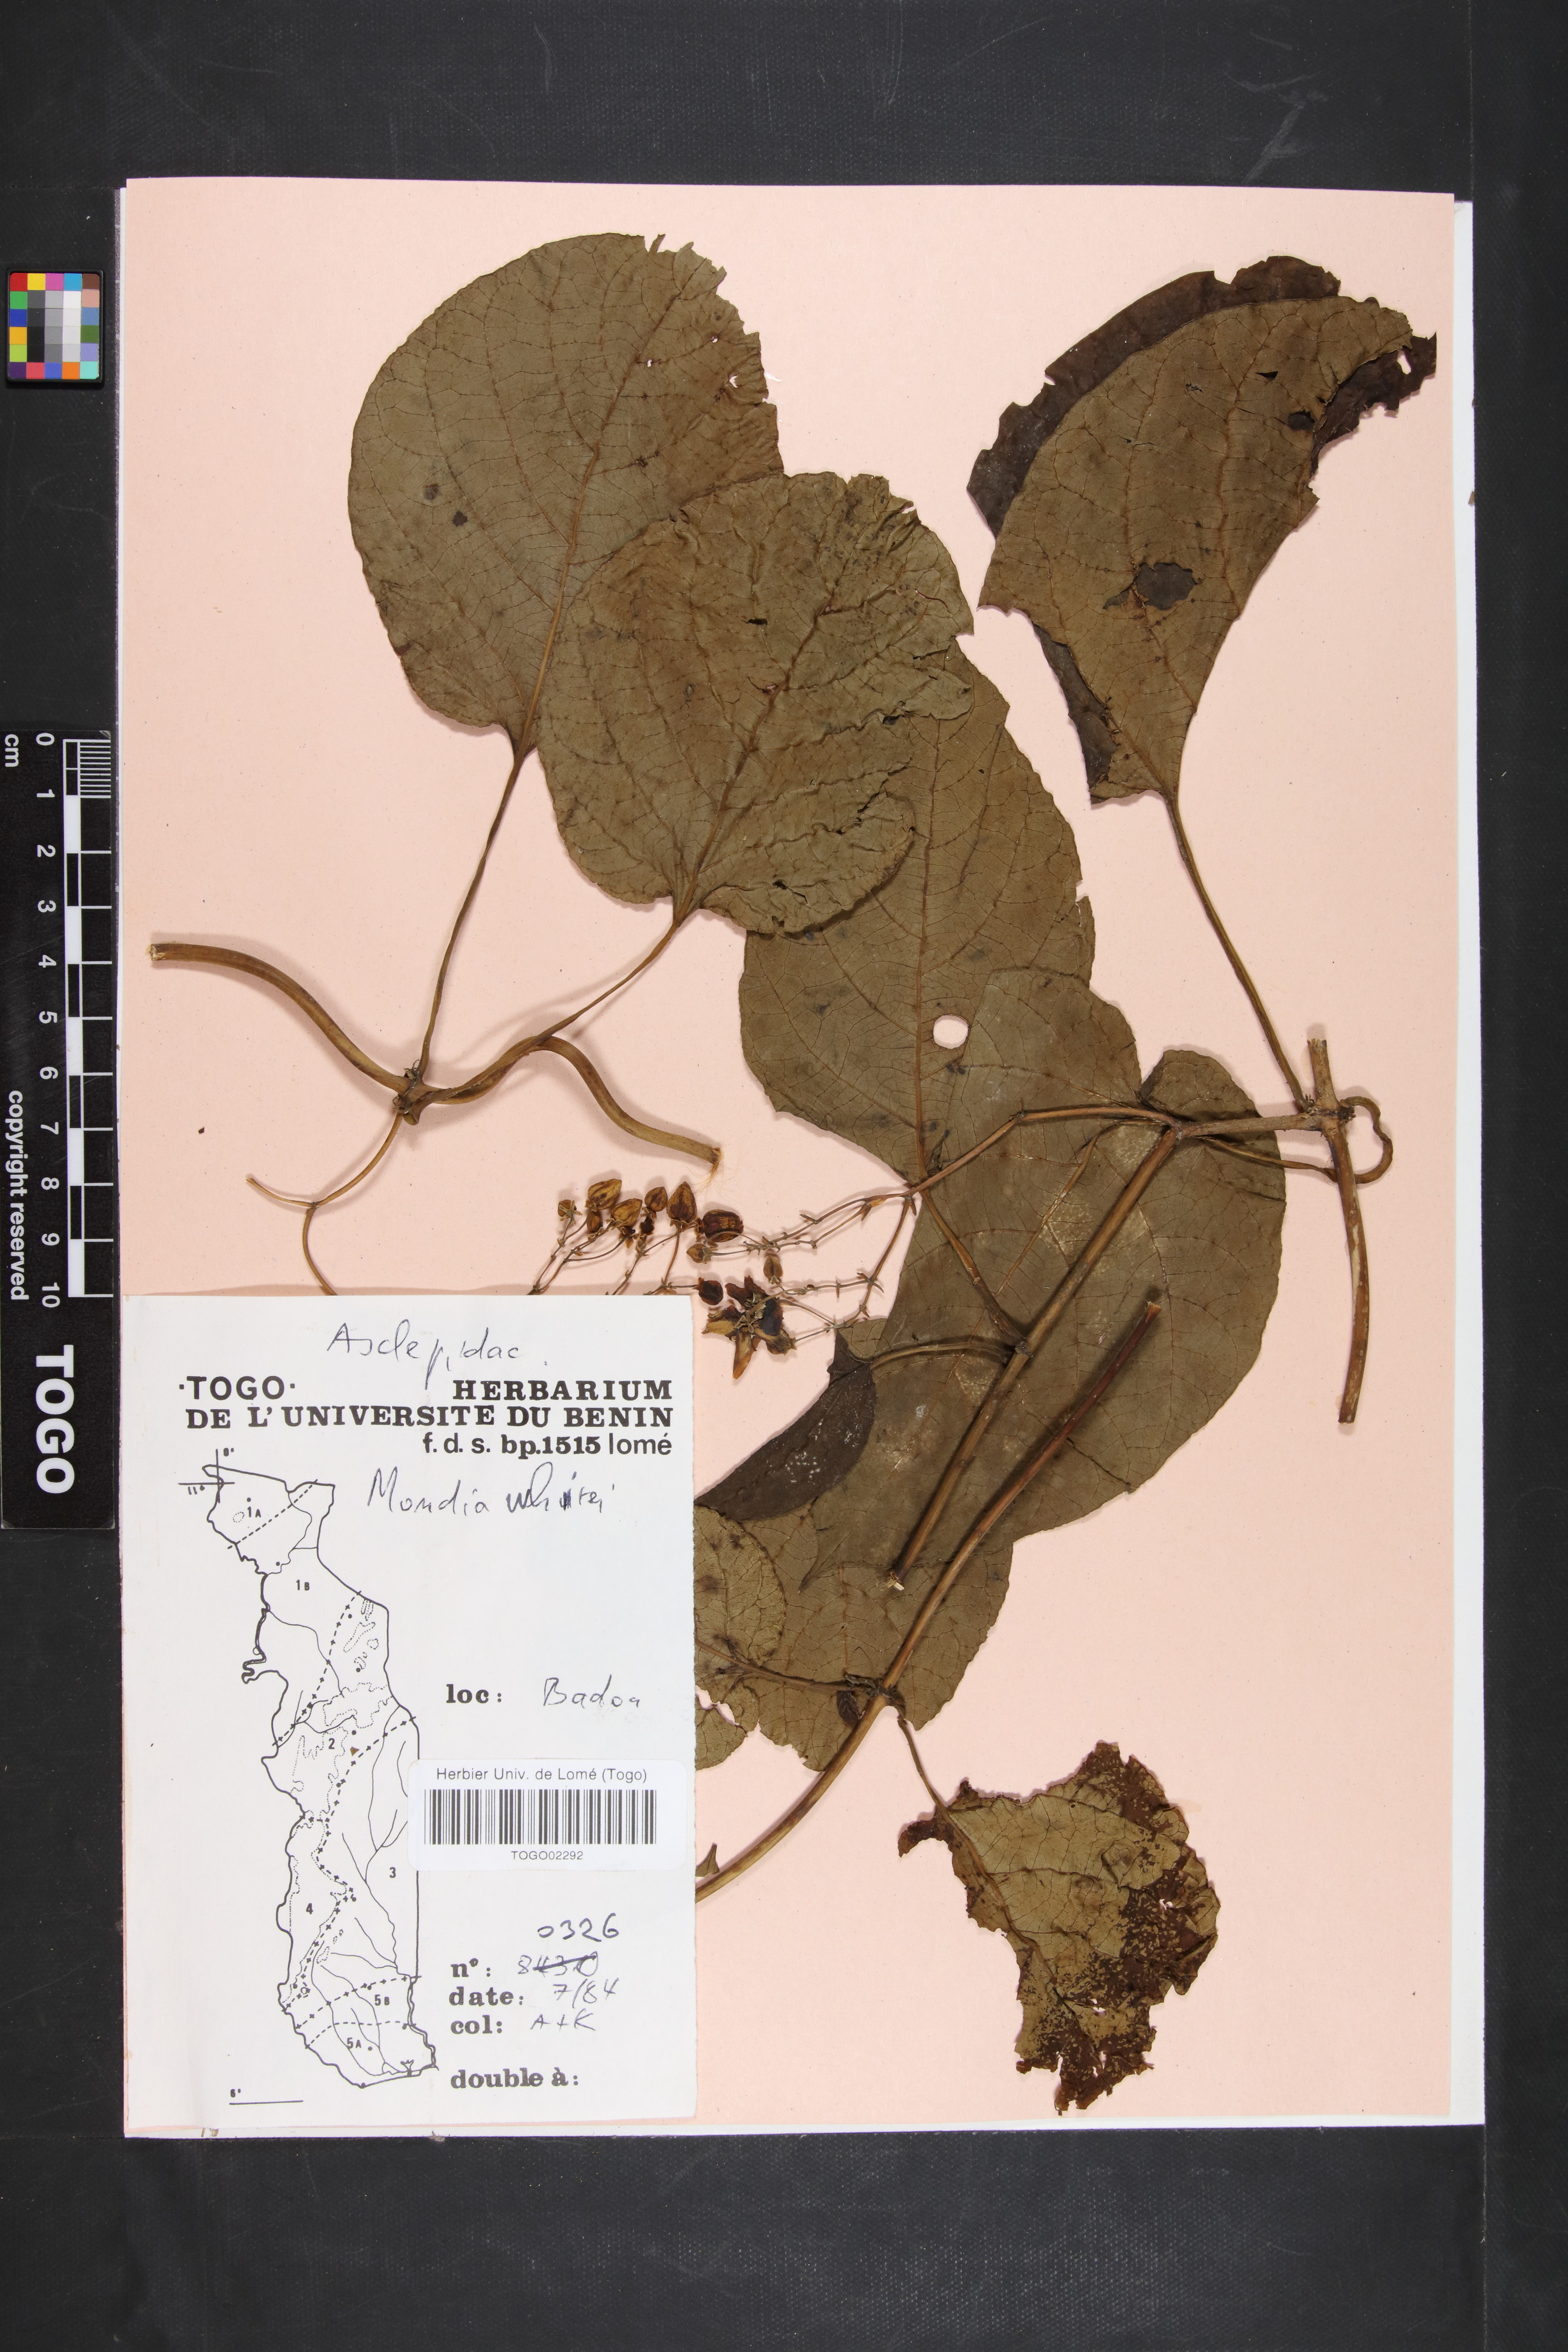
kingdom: Plantae
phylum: Tracheophyta
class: Magnoliopsida
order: Gentianales
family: Apocynaceae
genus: Mondia
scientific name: Mondia whitei
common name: Mondia
